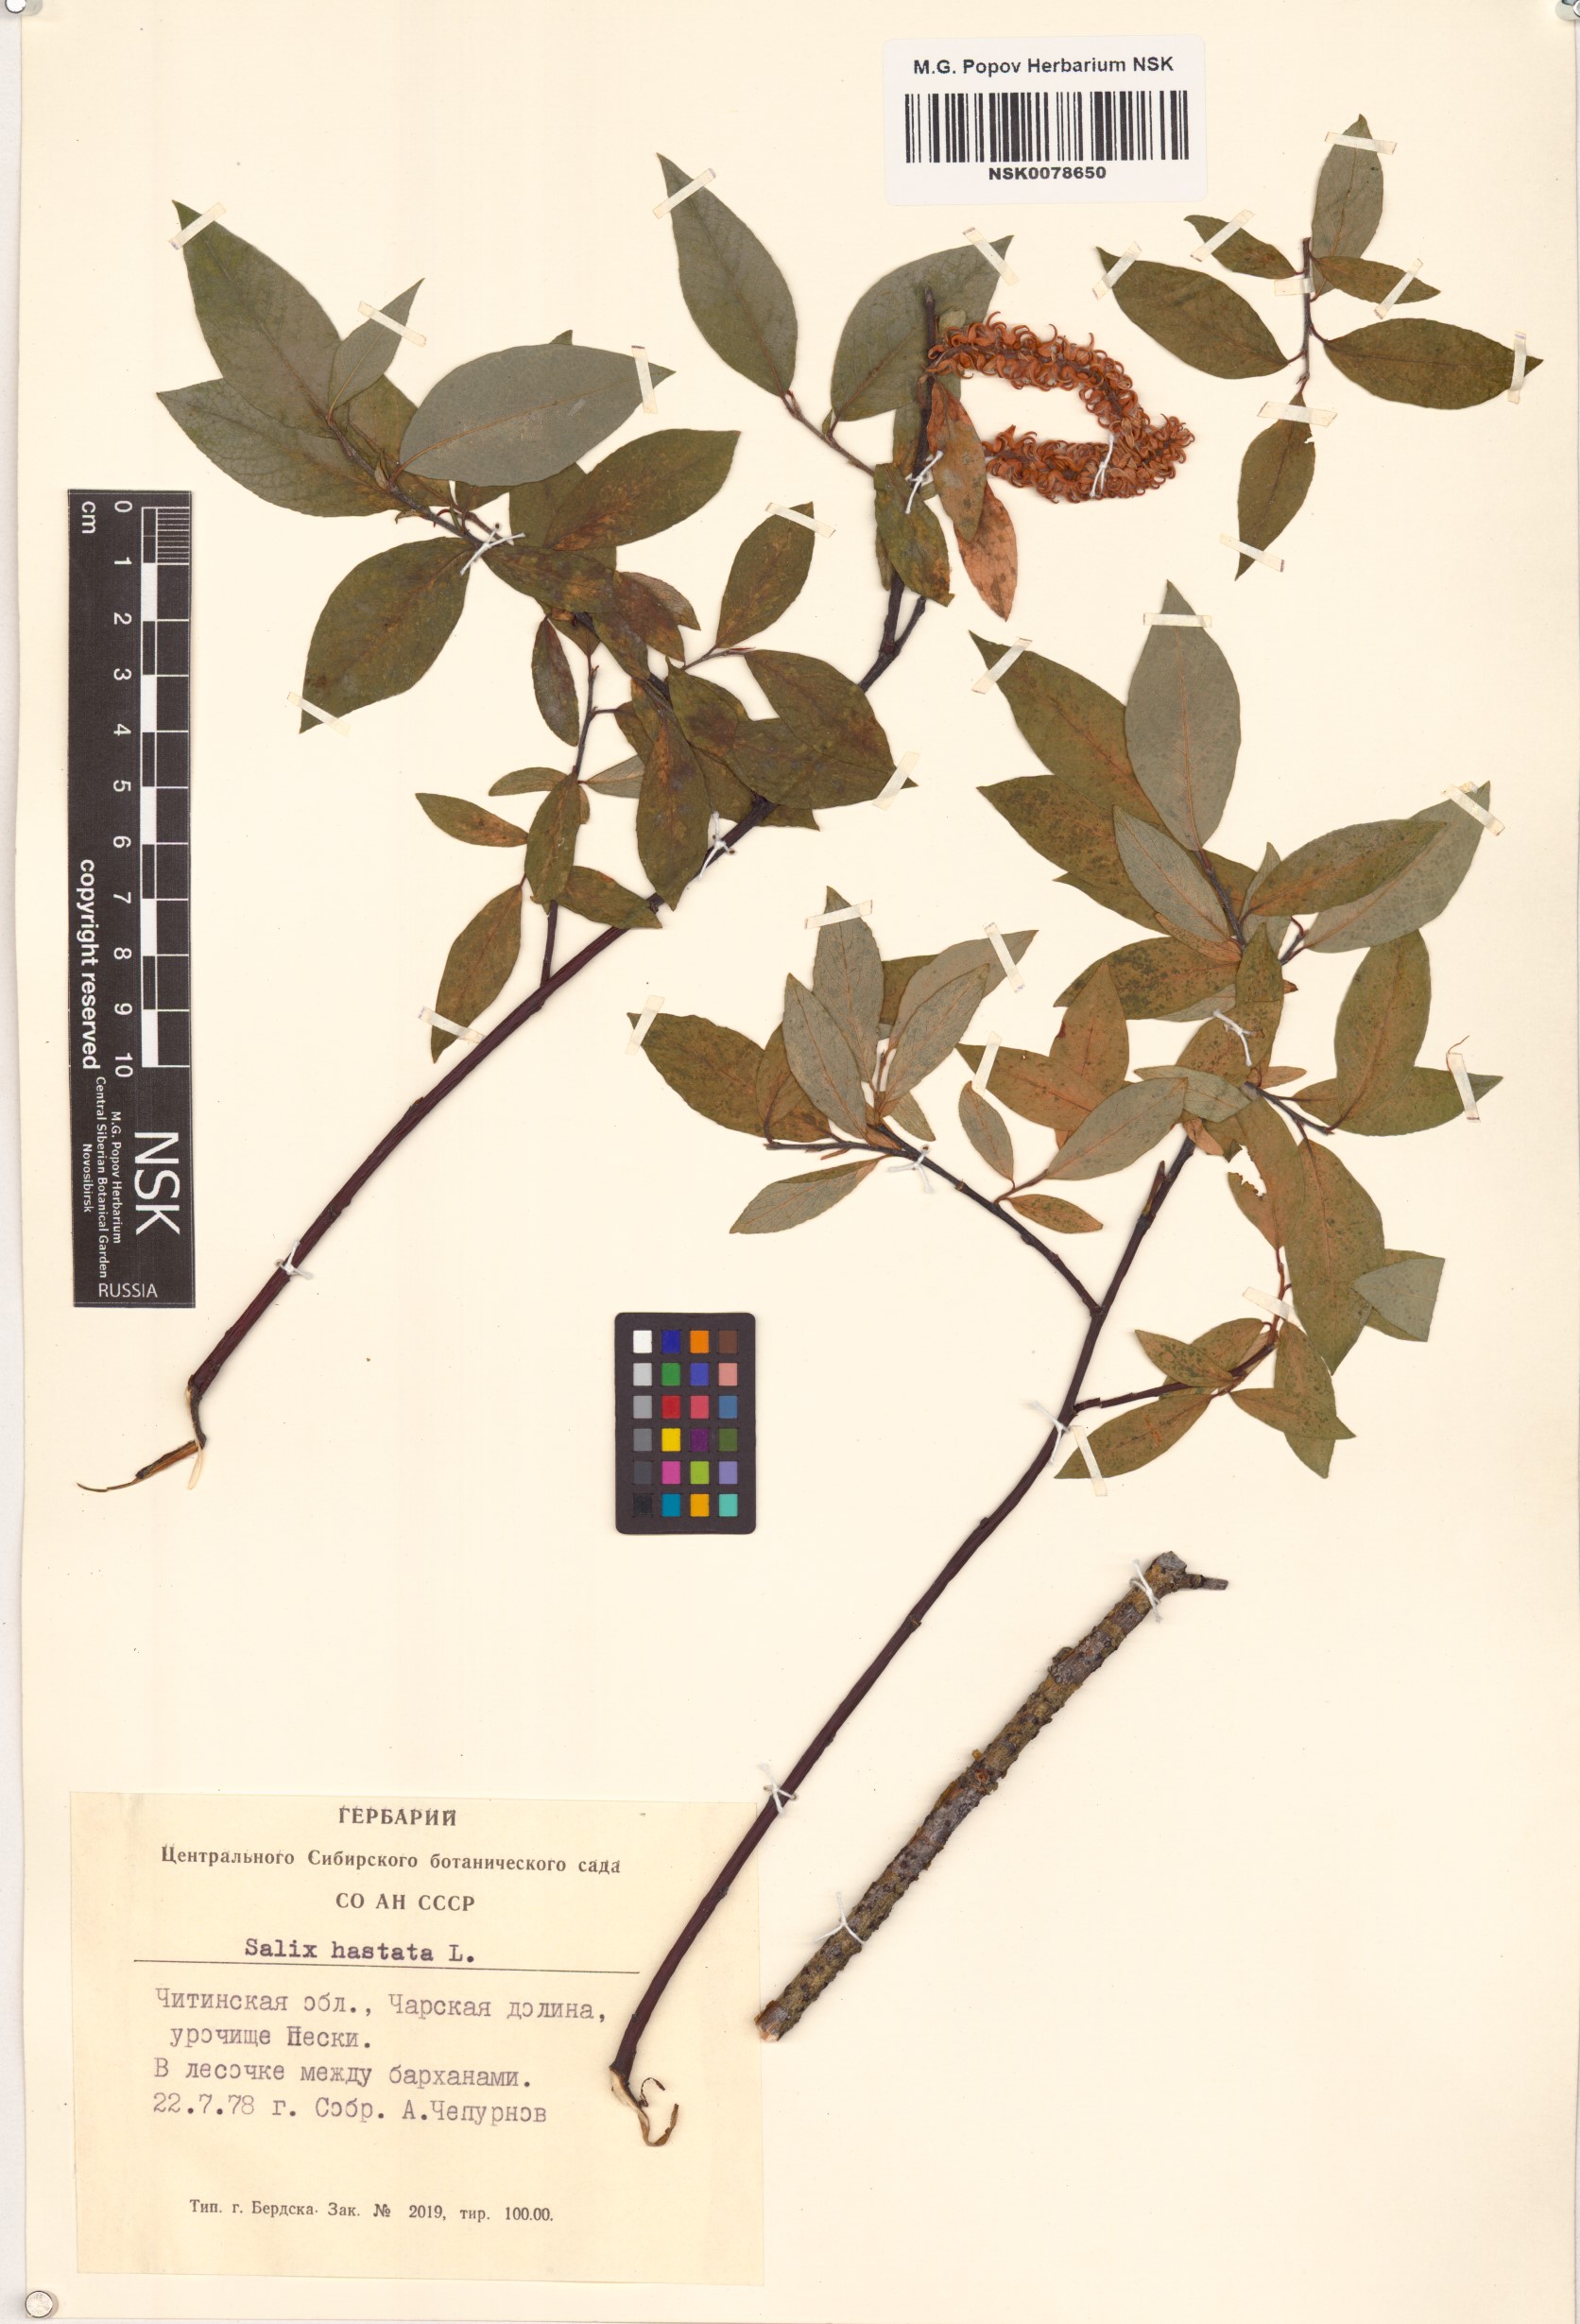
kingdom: Plantae
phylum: Tracheophyta
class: Magnoliopsida
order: Malpighiales
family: Salicaceae
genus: Salix
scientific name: Salix hastata
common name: Halberd willow
